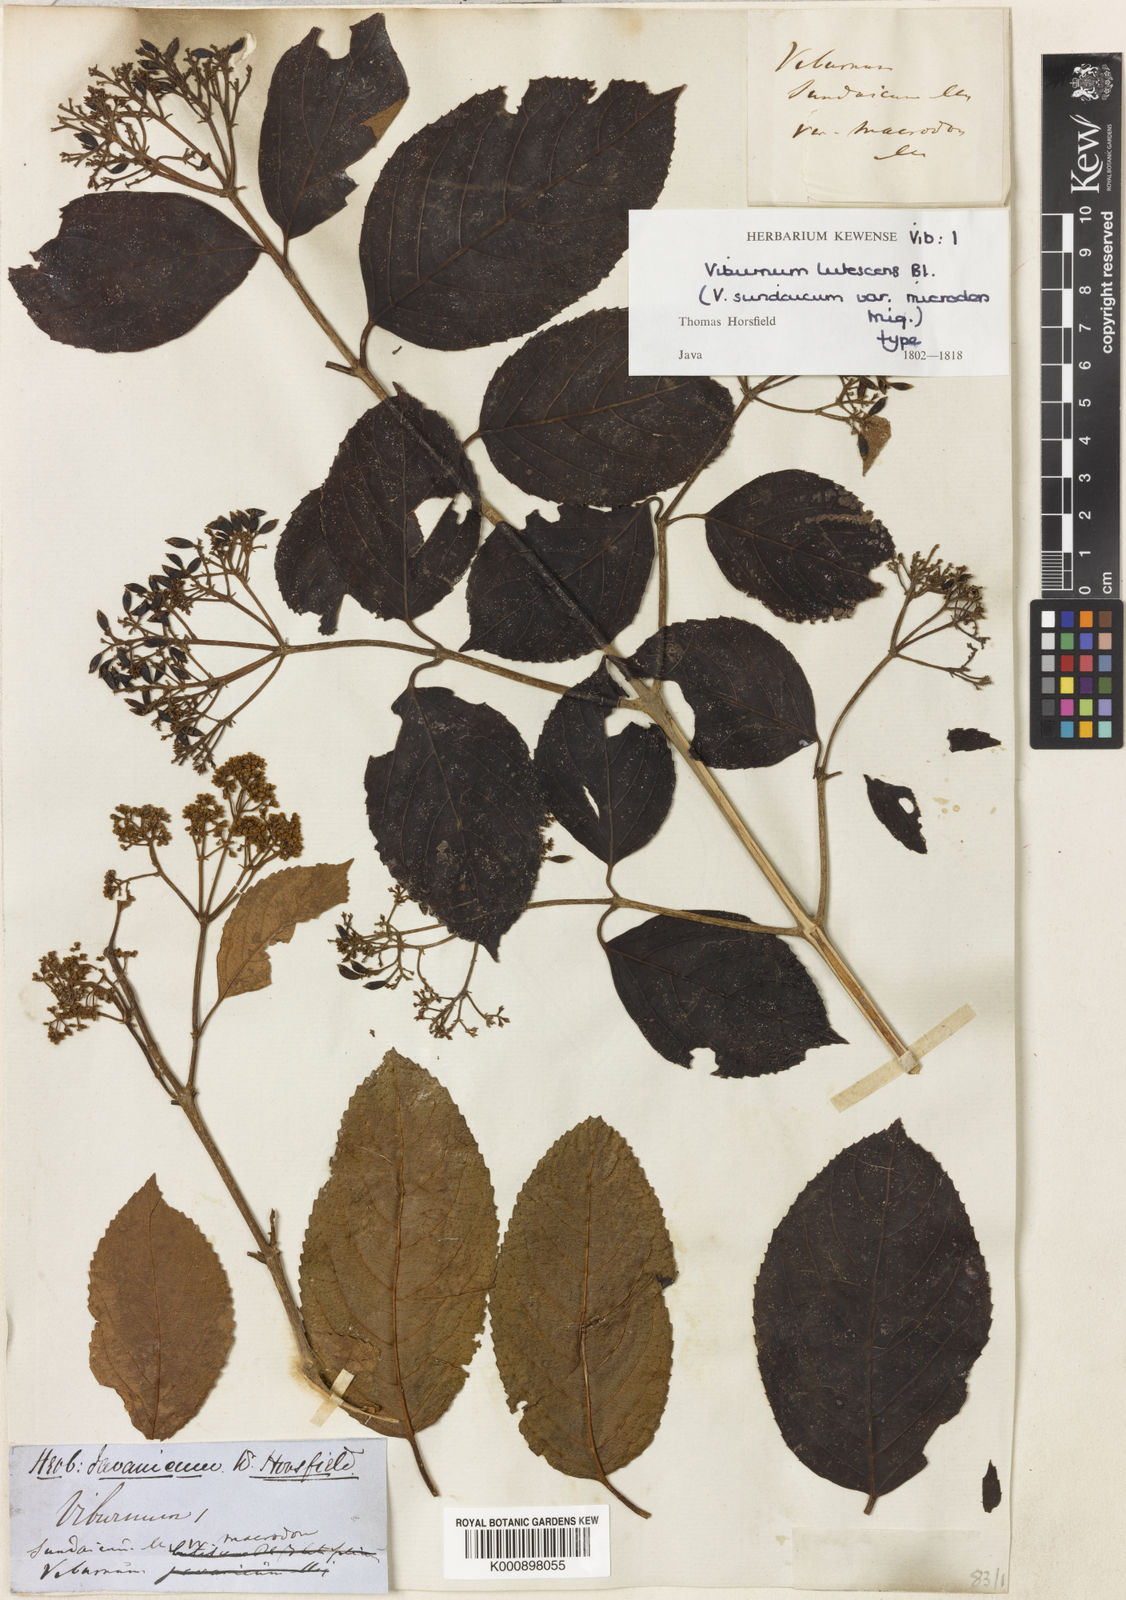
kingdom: Plantae
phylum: Tracheophyta
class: Magnoliopsida
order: Dipsacales
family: Viburnaceae
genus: Viburnum
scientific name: Viburnum lutescens
